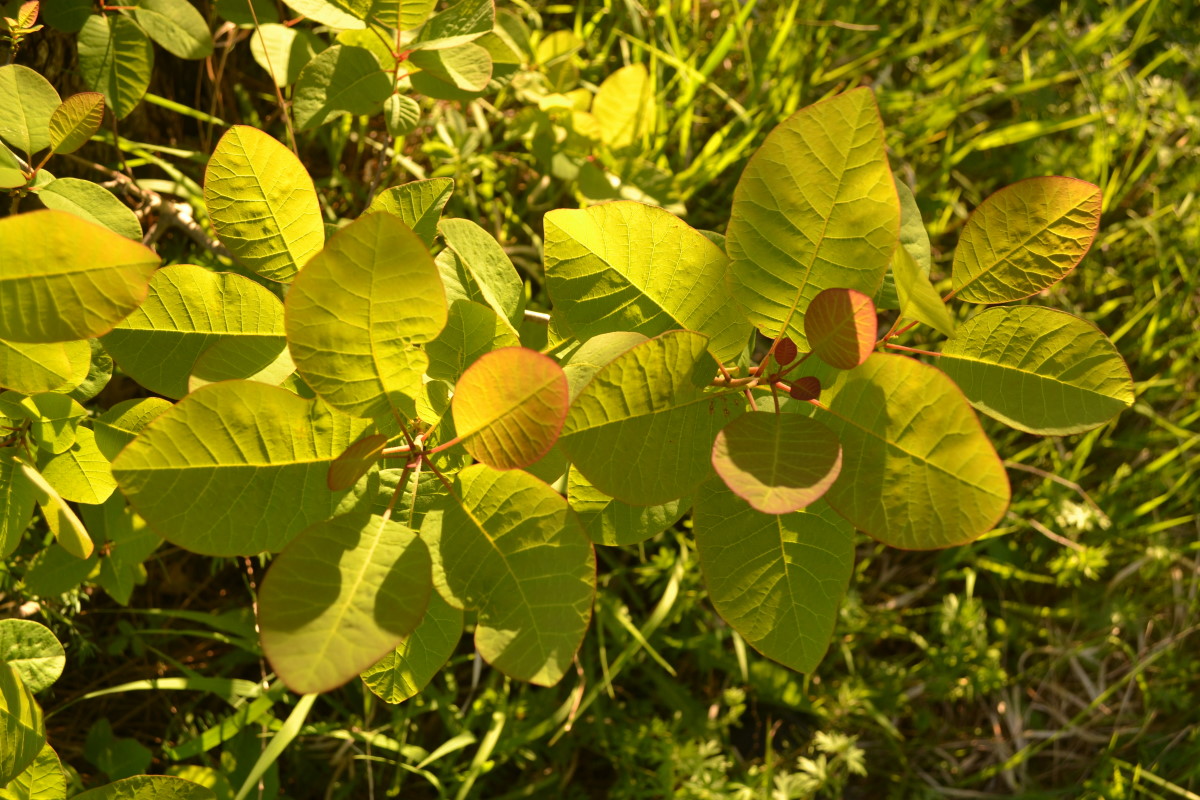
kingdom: Plantae
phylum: Tracheophyta
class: Magnoliopsida
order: Sapindales
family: Anacardiaceae
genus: Cotinus
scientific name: Cotinus coggygria
